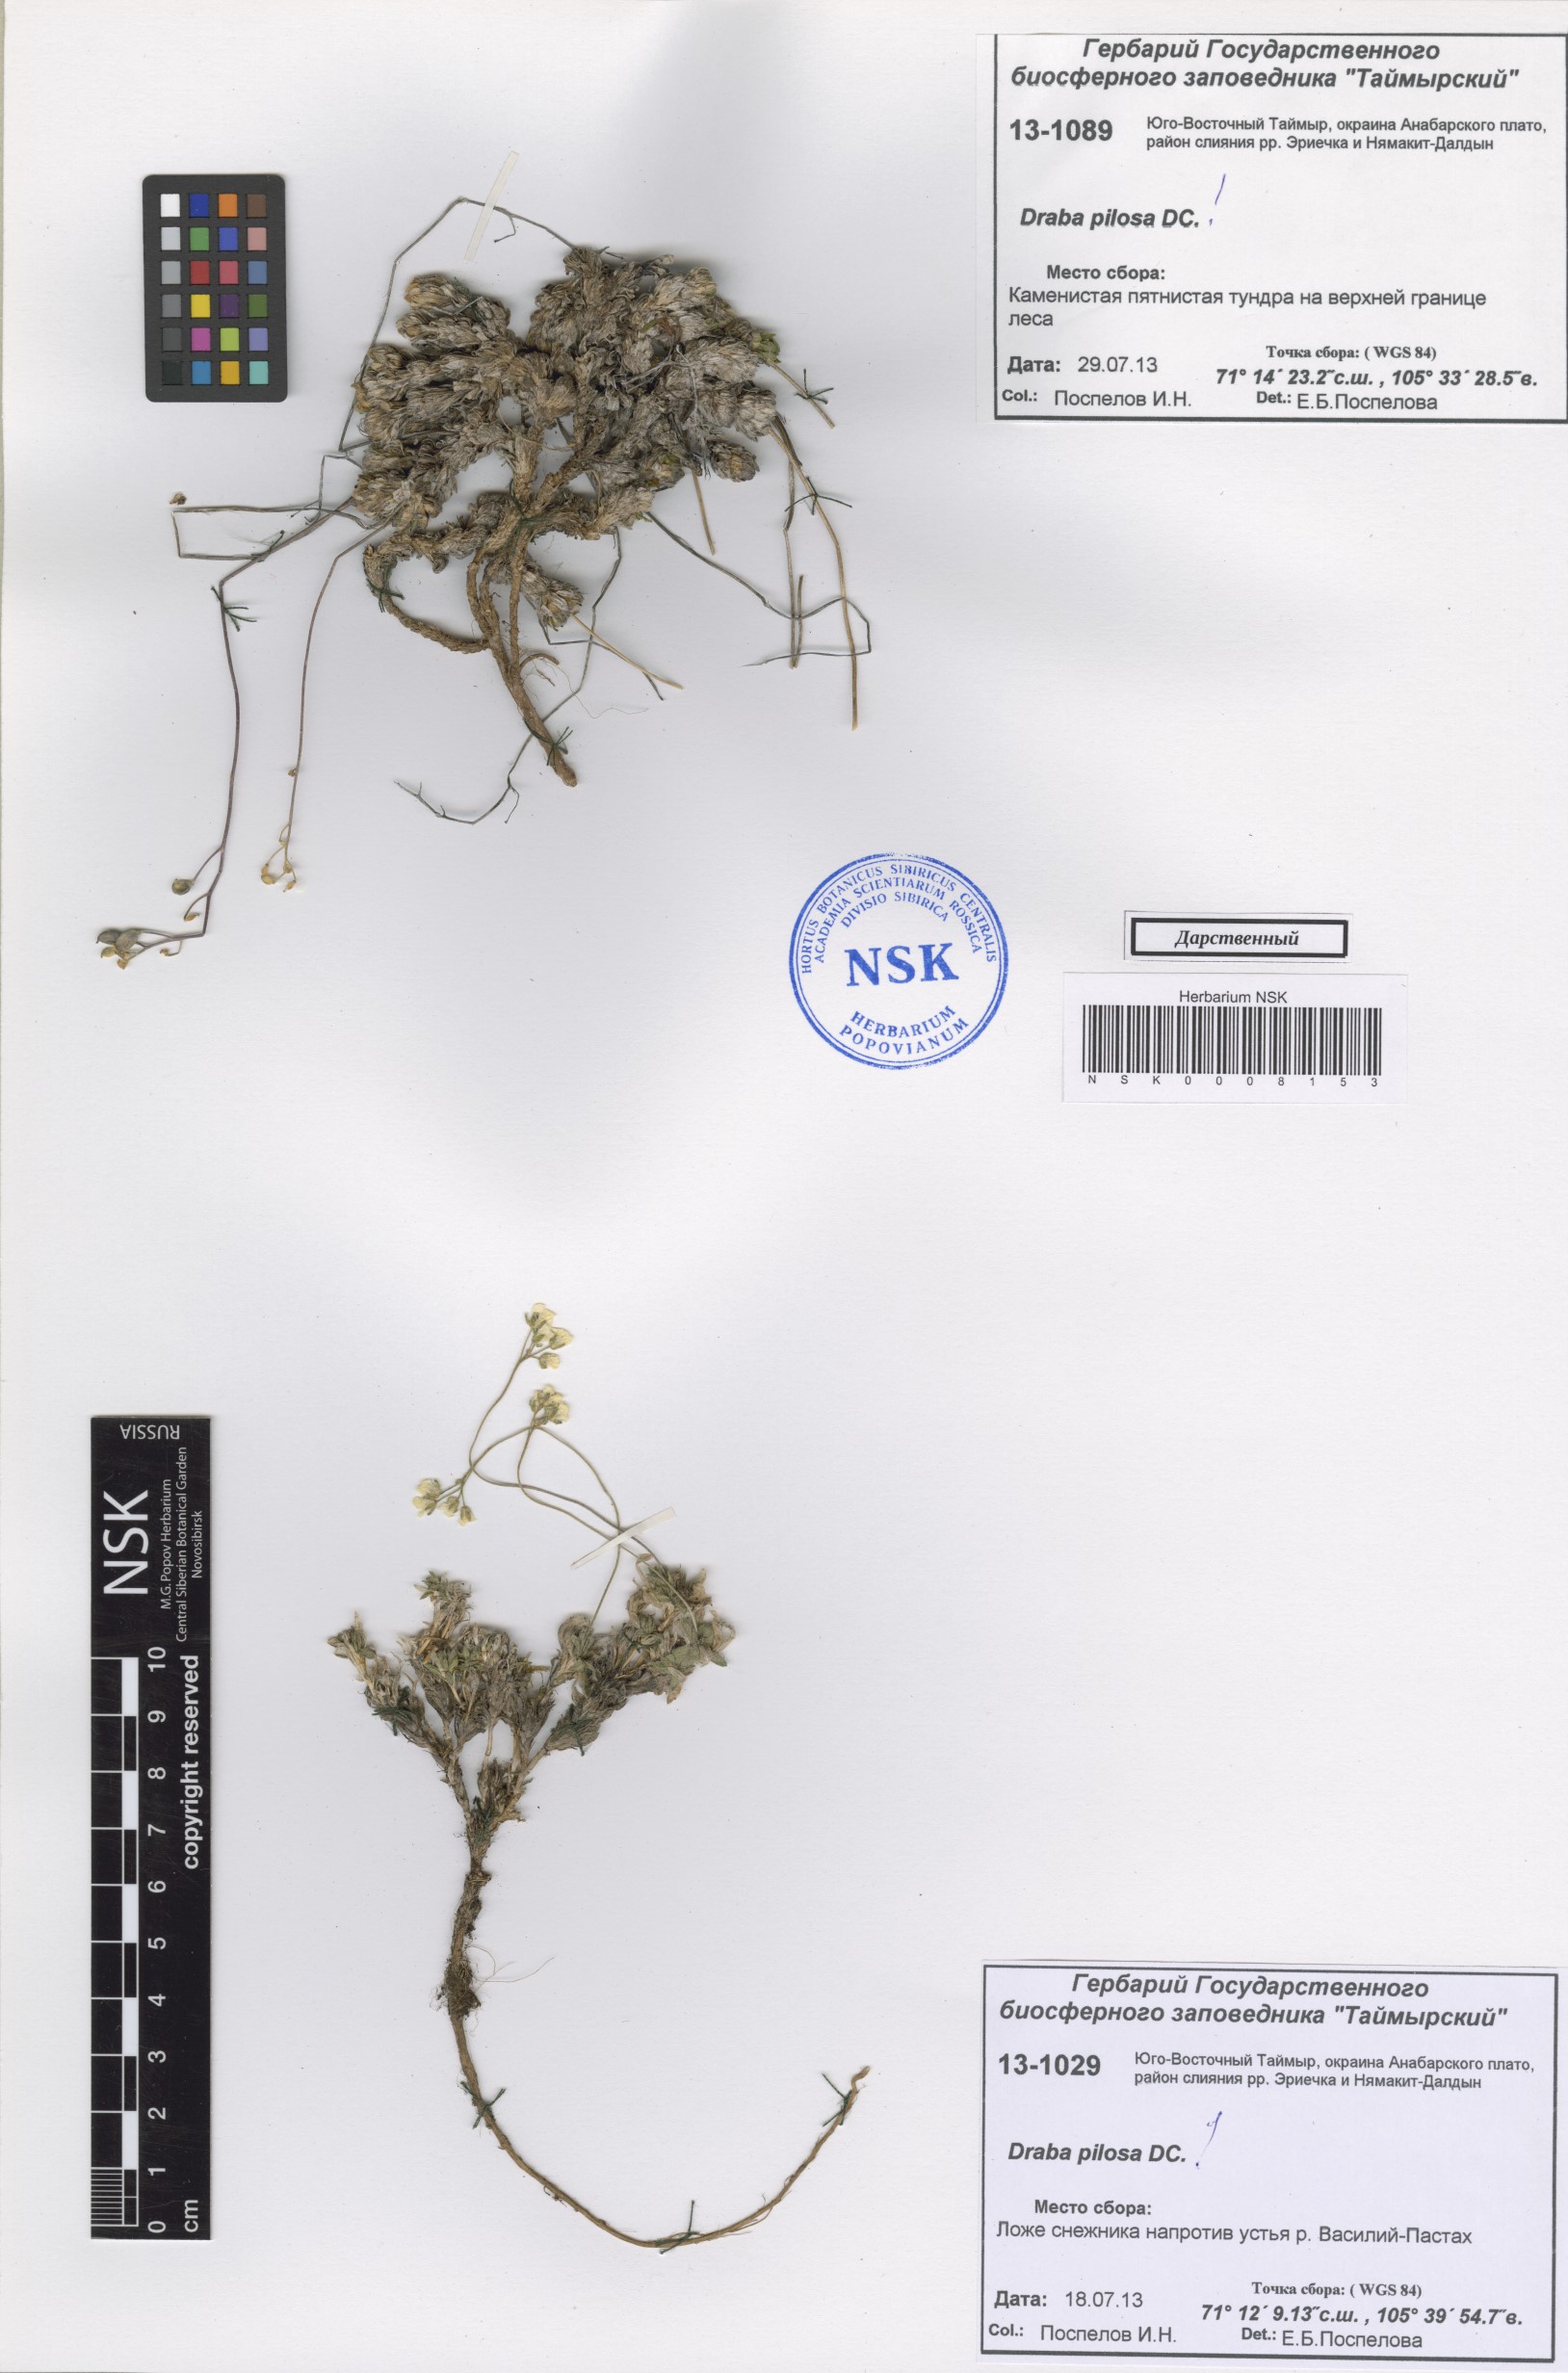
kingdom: Plantae
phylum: Tracheophyta
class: Magnoliopsida
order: Brassicales
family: Brassicaceae
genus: Draba
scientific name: Draba pilosa
